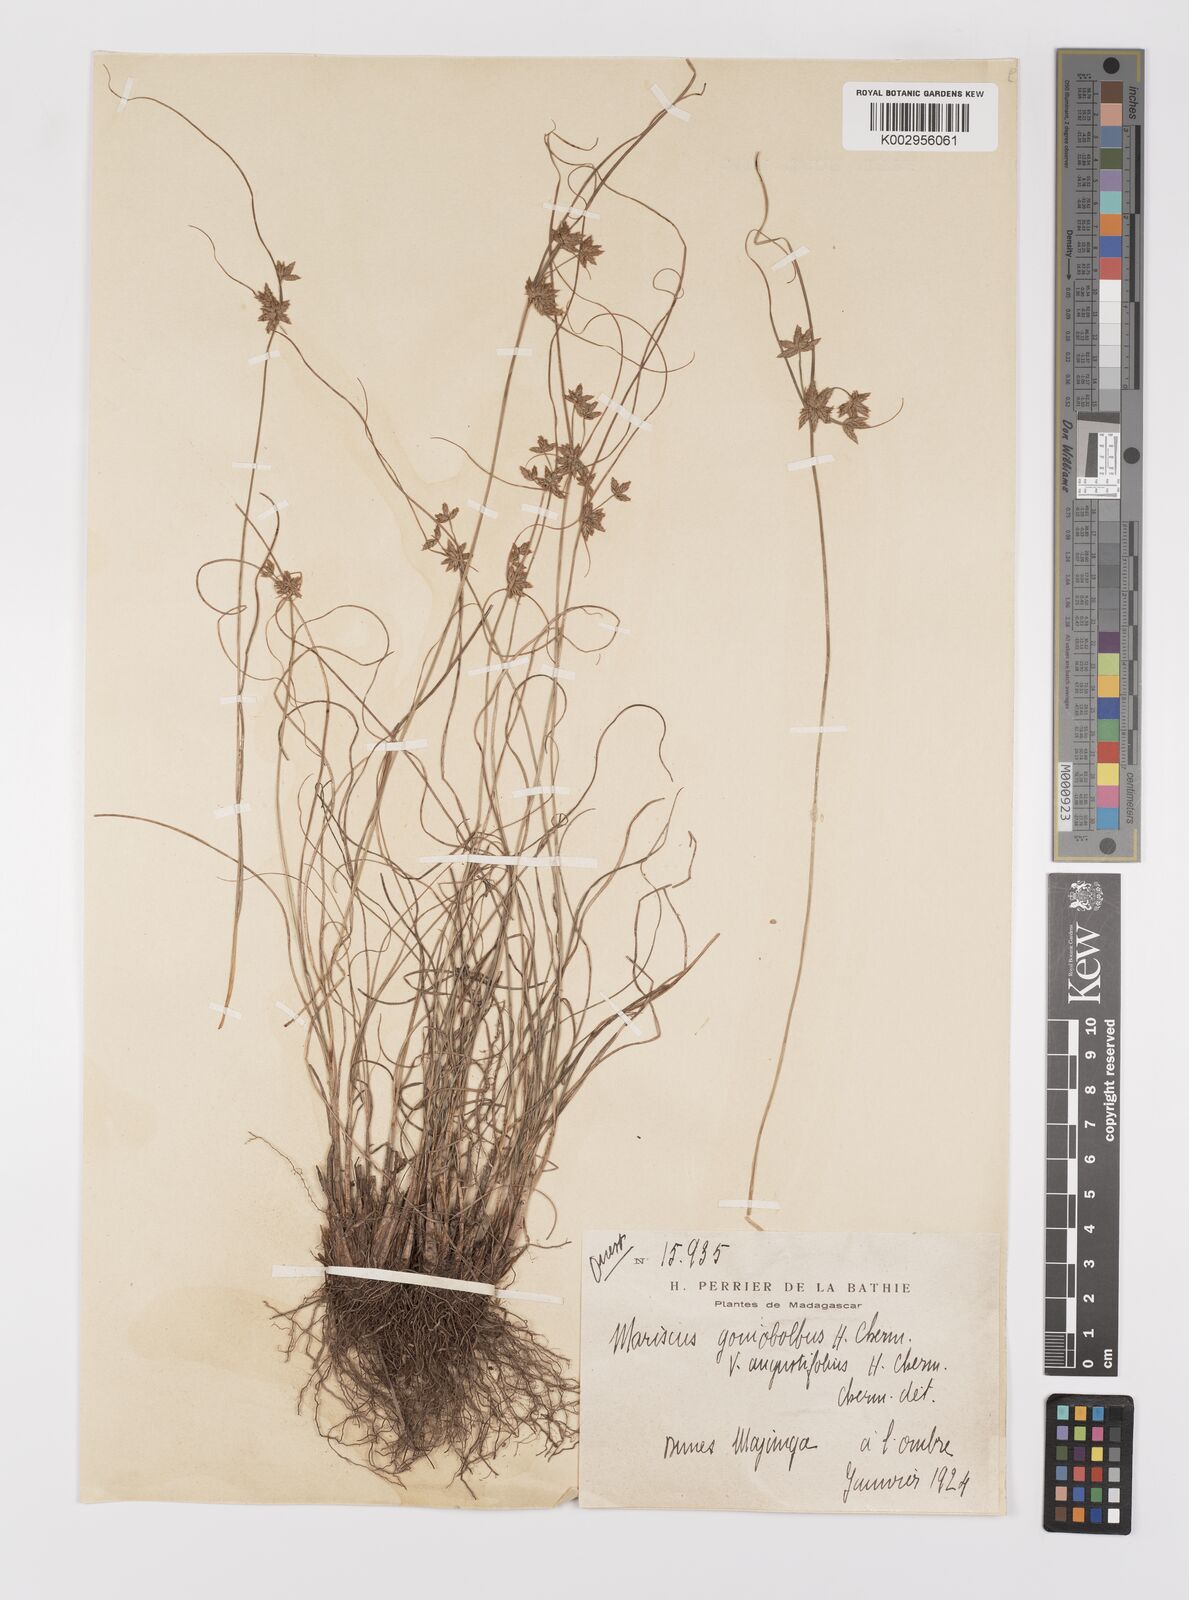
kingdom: Plantae
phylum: Tracheophyta
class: Liliopsida
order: Poales
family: Cyperaceae
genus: Cyperus
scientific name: Cyperus pseudovestitus
